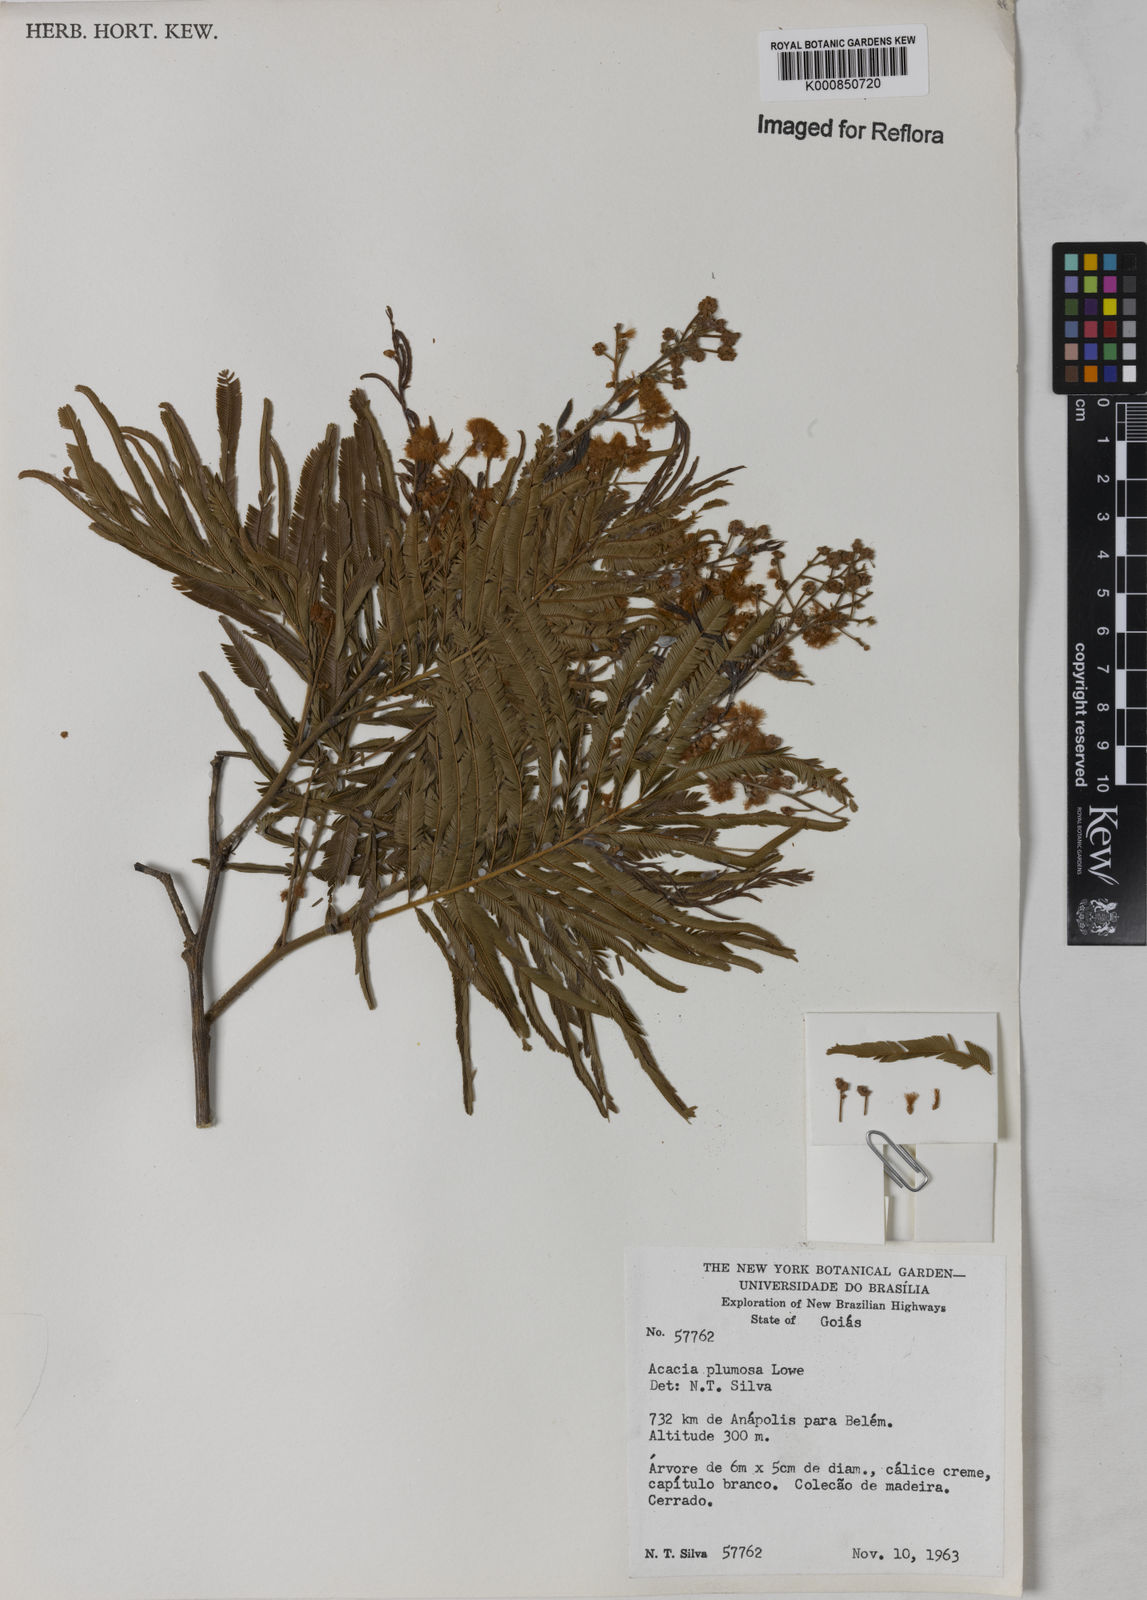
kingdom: Plantae
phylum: Tracheophyta
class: Magnoliopsida
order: Fabales
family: Fabaceae
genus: Senegalia
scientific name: Senegalia lowei
